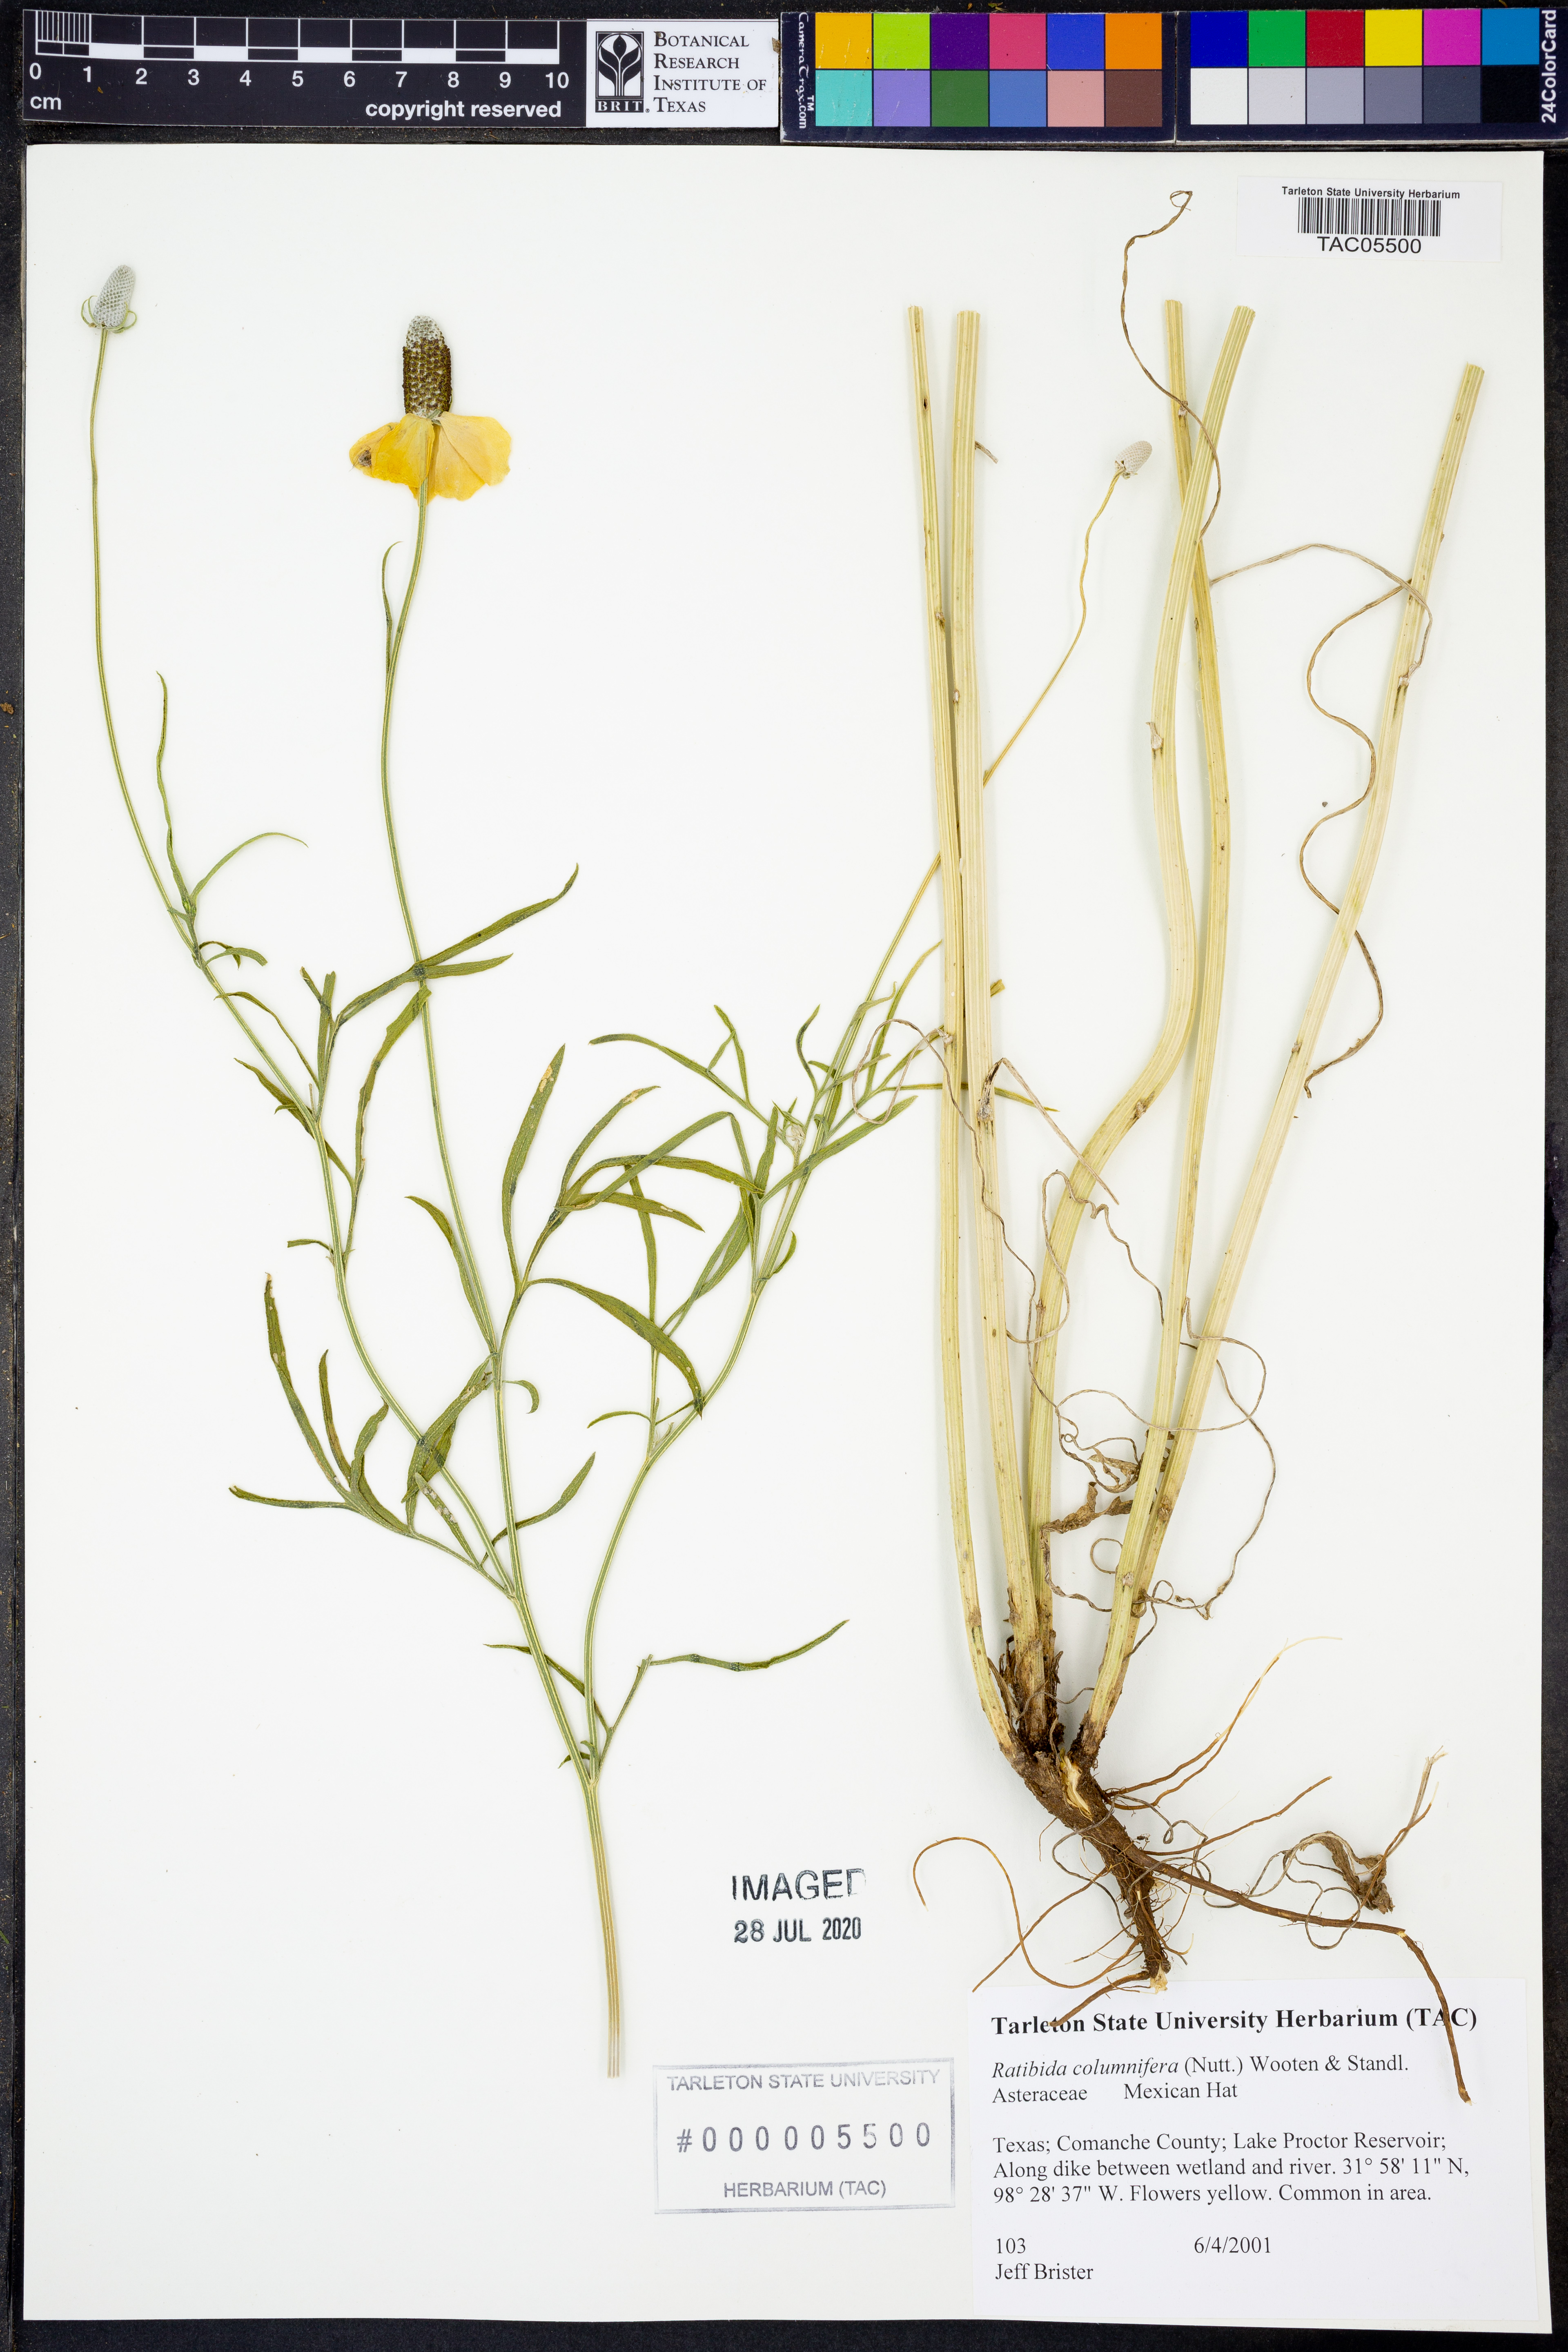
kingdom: Plantae
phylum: Tracheophyta
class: Magnoliopsida
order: Asterales
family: Asteraceae
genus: Ratibida
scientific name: Ratibida columnifera
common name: Prairie coneflower
